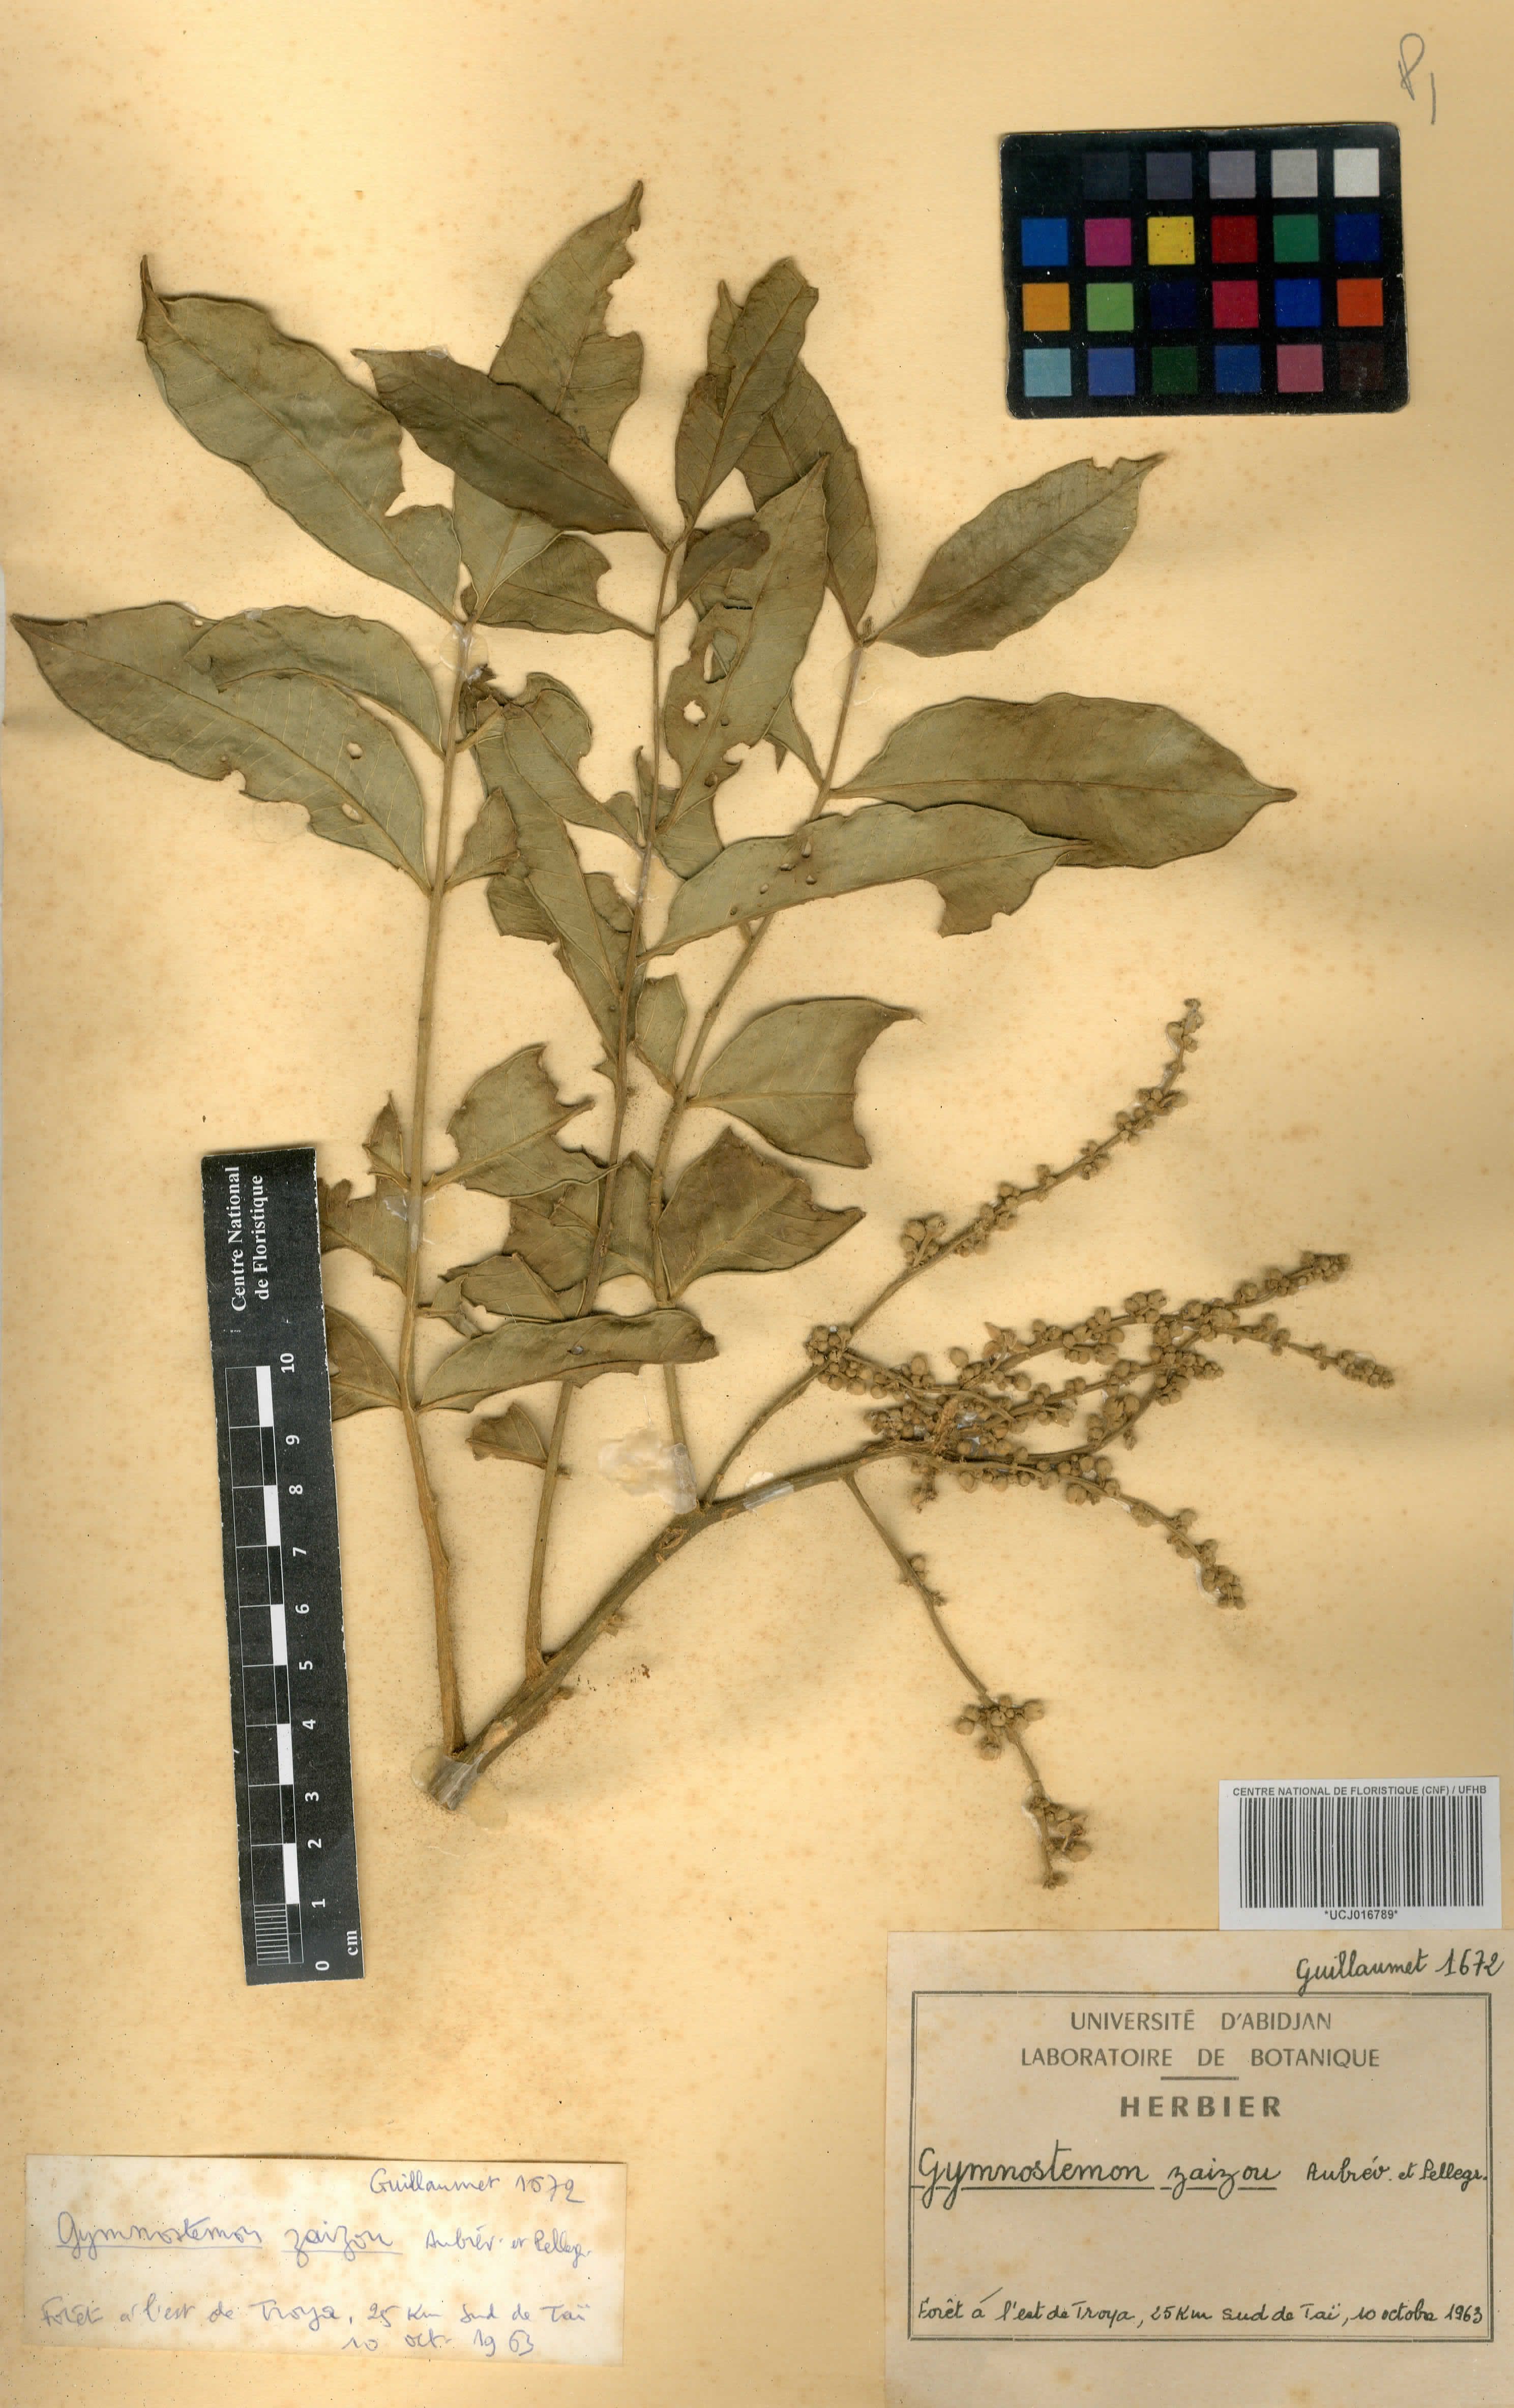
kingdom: Plantae
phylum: Tracheophyta
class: Magnoliopsida
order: Sapindales
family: Simaroubaceae
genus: Gymnostemon
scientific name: Gymnostemon zaizou
